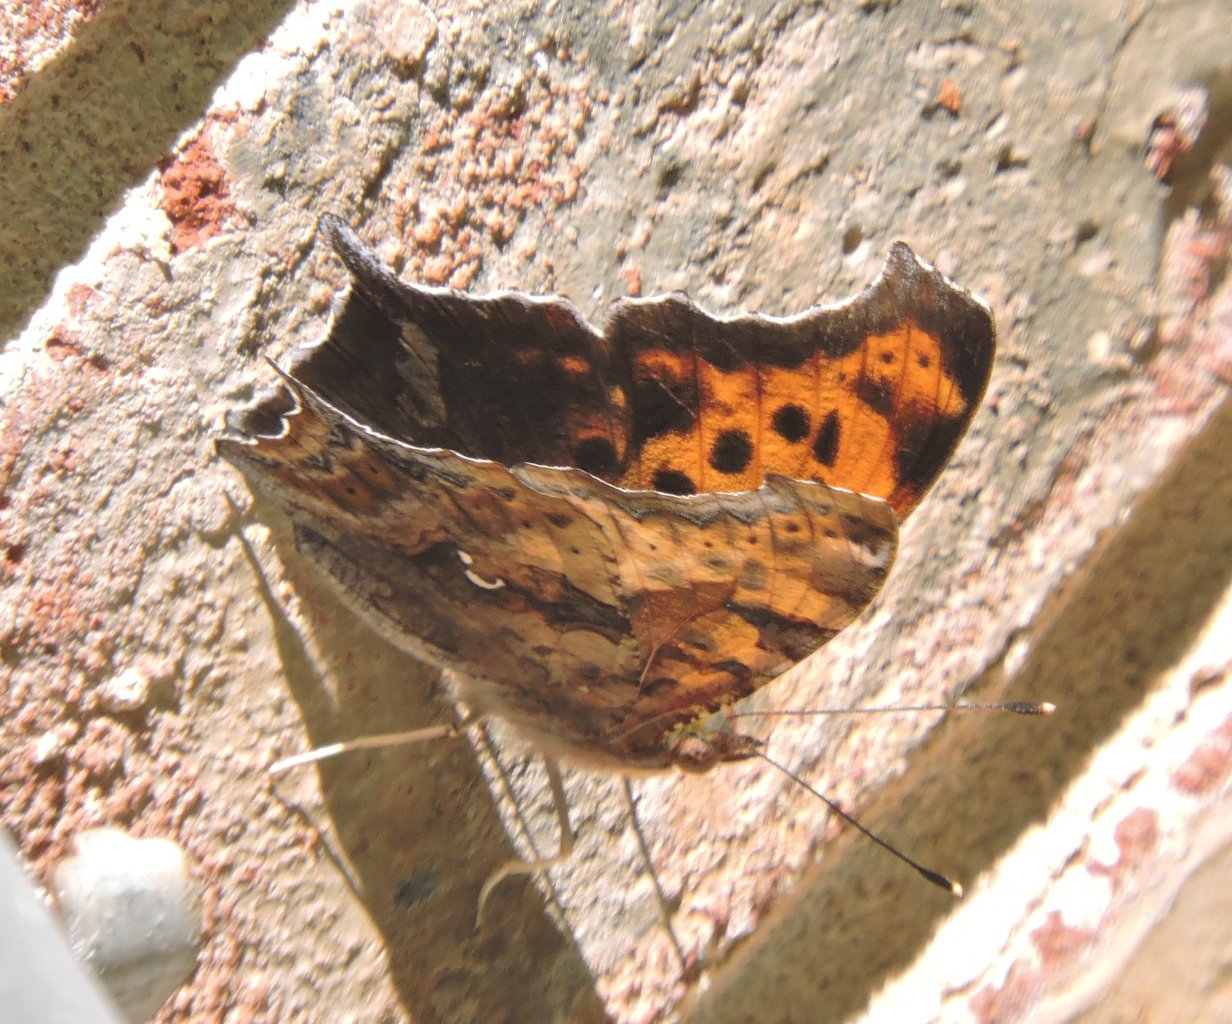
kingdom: Animalia
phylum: Arthropoda
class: Insecta
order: Lepidoptera
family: Nymphalidae
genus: Polygonia
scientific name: Polygonia interrogationis
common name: Question Mark
